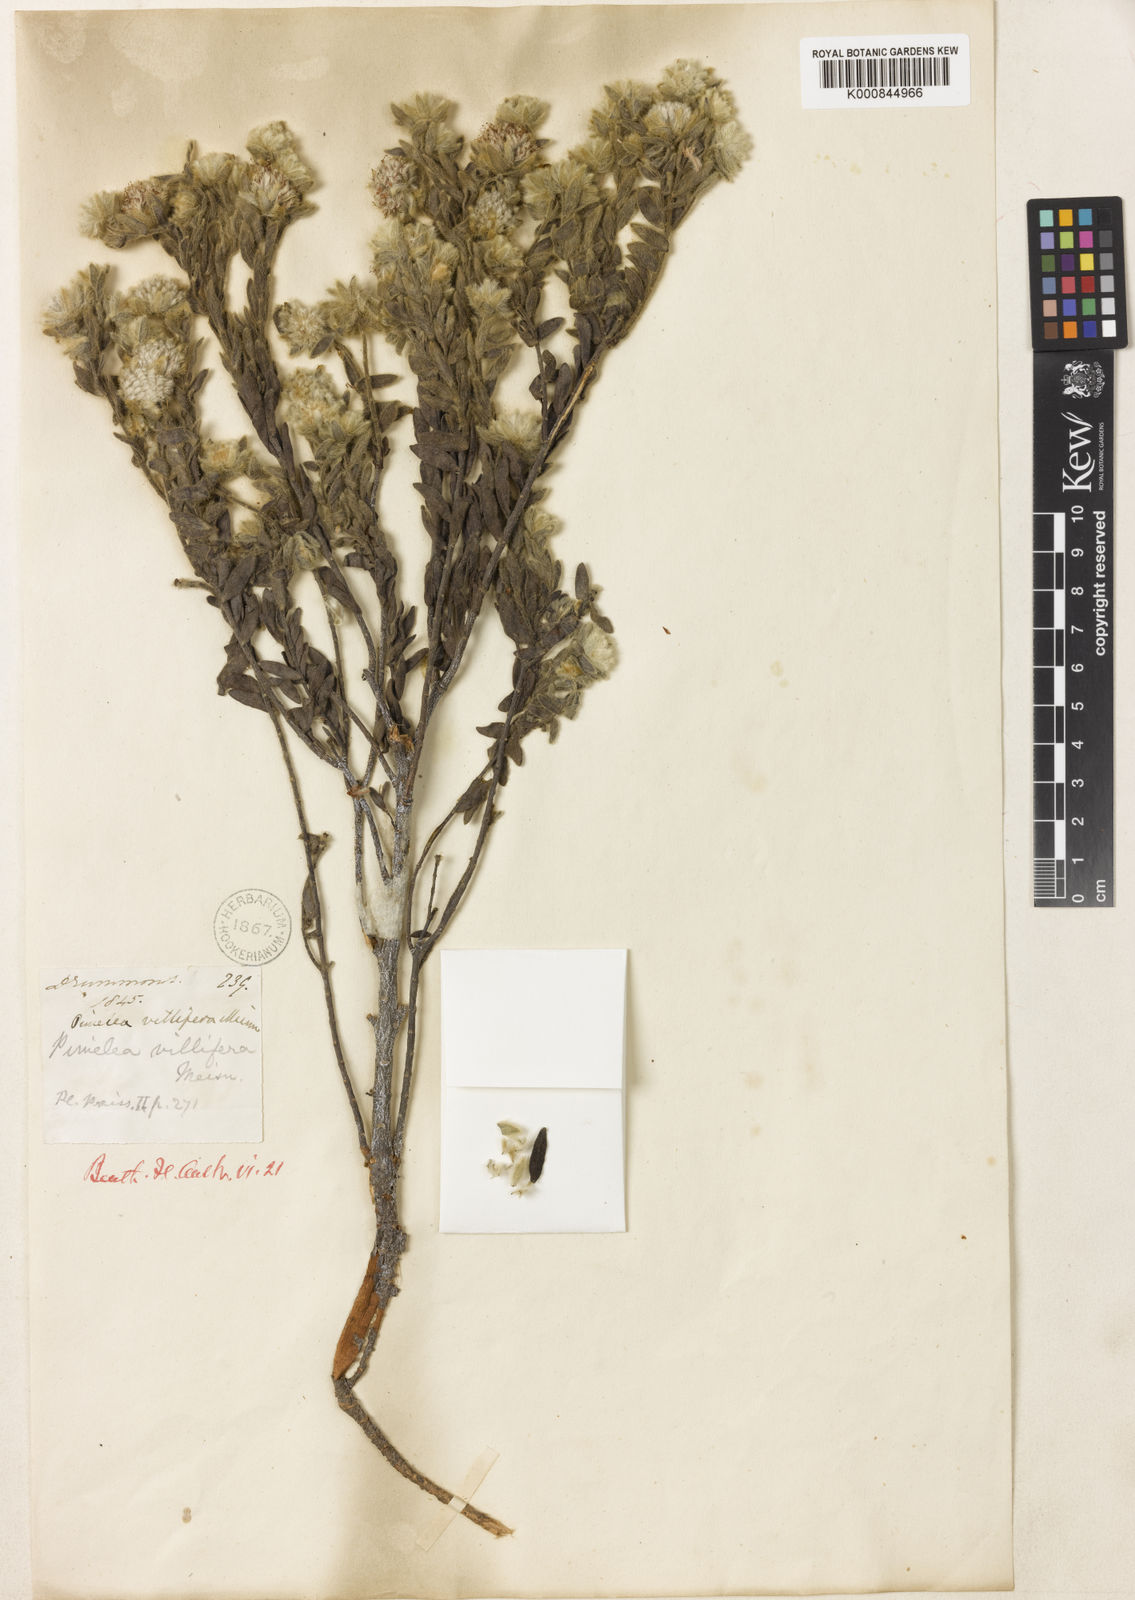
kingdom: Plantae
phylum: Tracheophyta
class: Magnoliopsida
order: Malvales
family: Thymelaeaceae
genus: Pimelea
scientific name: Pimelea villifera
